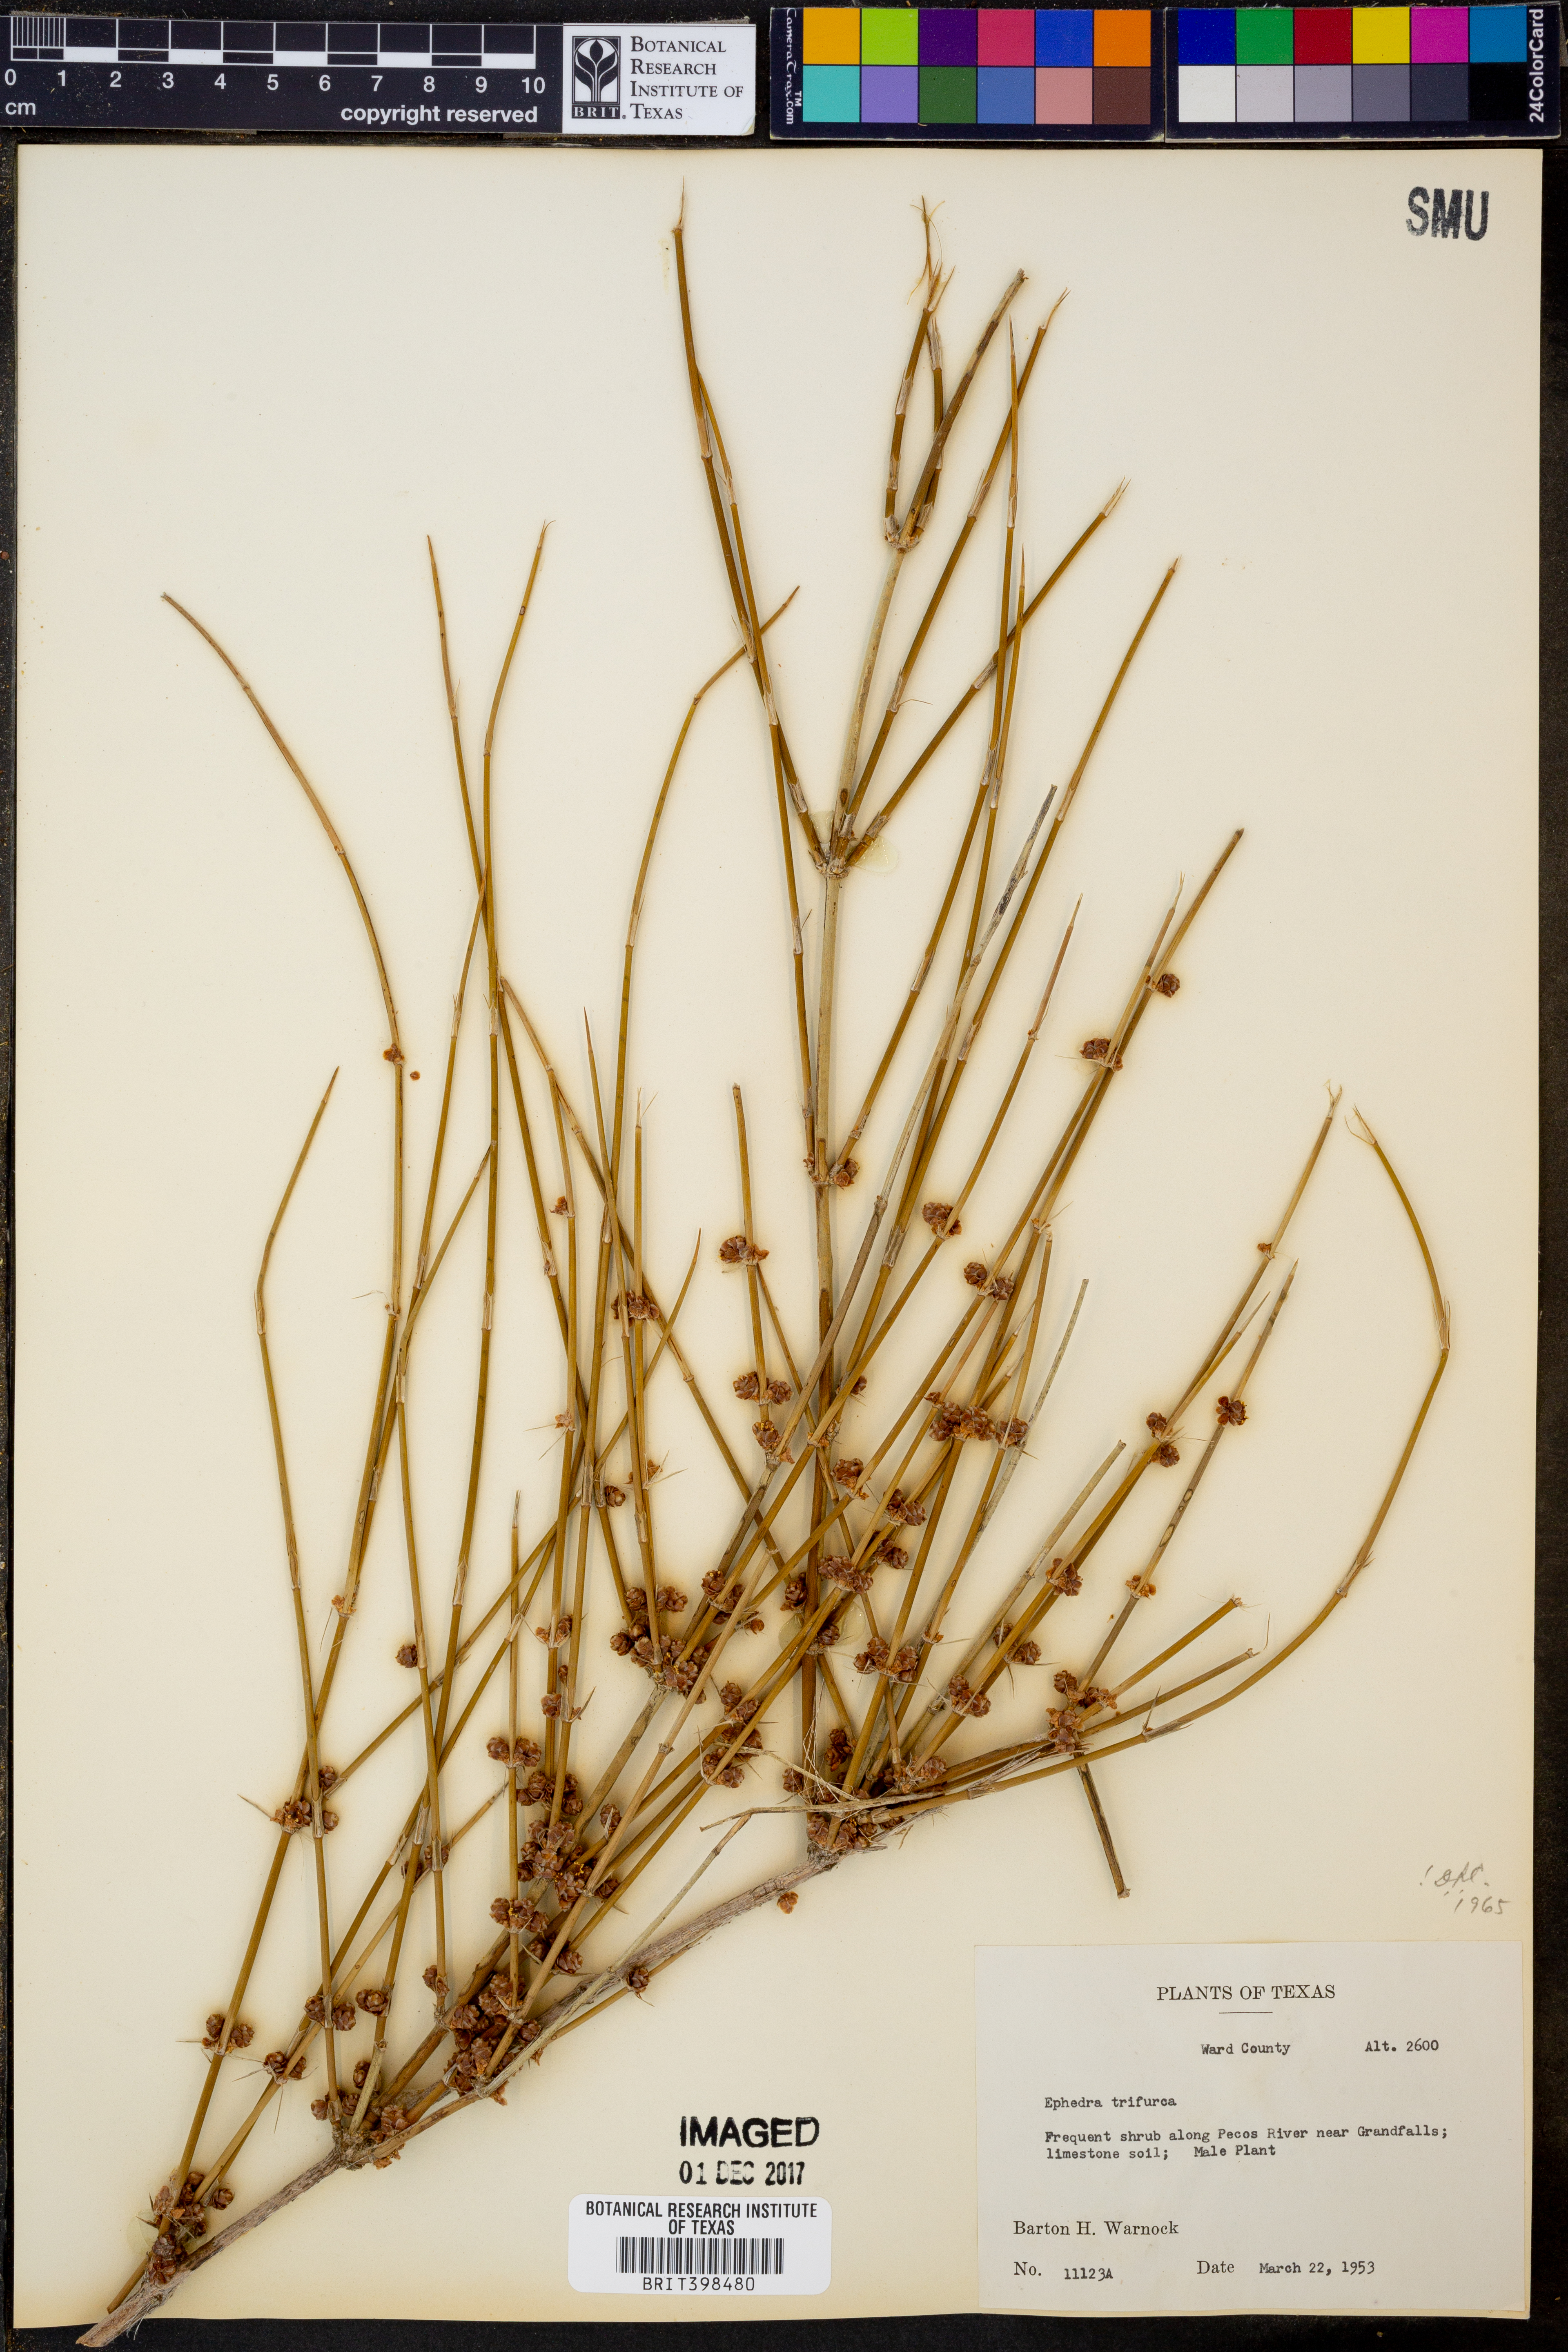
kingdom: Plantae
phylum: Tracheophyta
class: Gnetopsida
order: Ephedrales
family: Ephedraceae
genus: Ephedra
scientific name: Ephedra trifurca
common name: Mexican-tea
